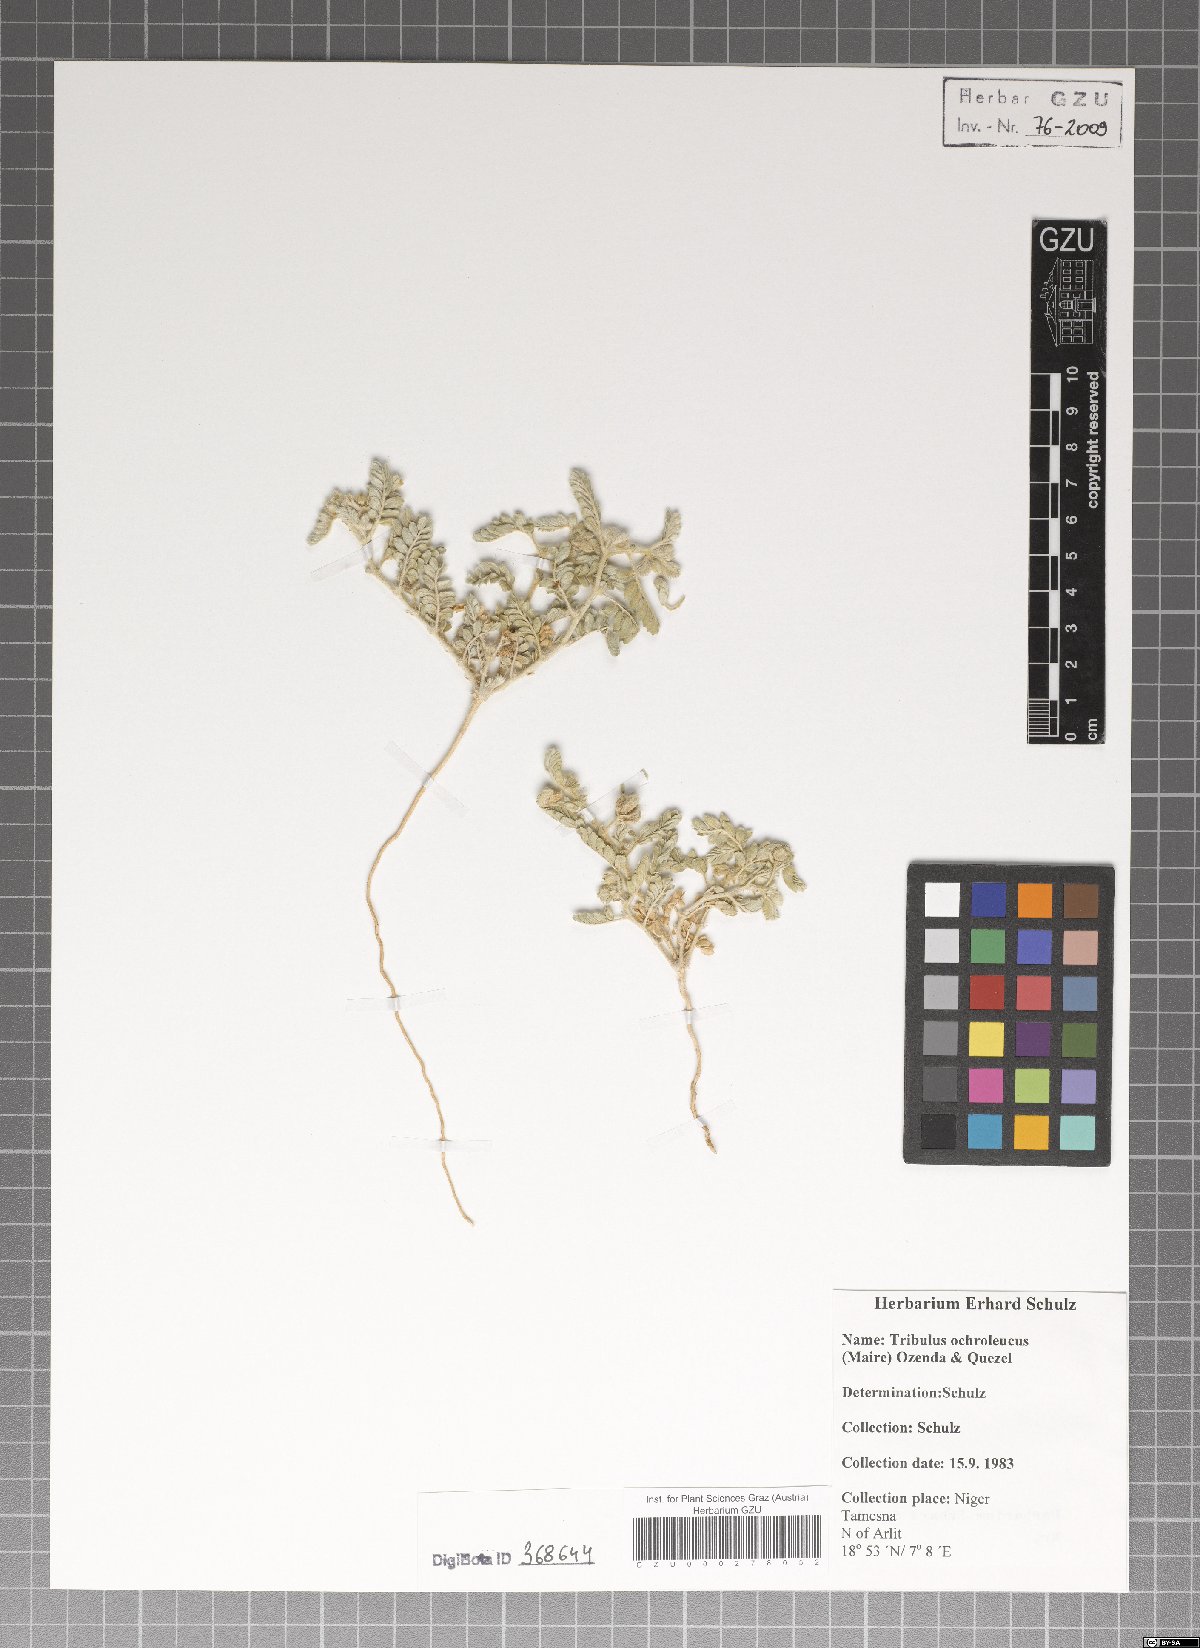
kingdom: Plantae
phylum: Tracheophyta
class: Magnoliopsida
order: Zygophyllales
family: Zygophyllaceae
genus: Tribulus
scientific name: Tribulus ochroleucus
